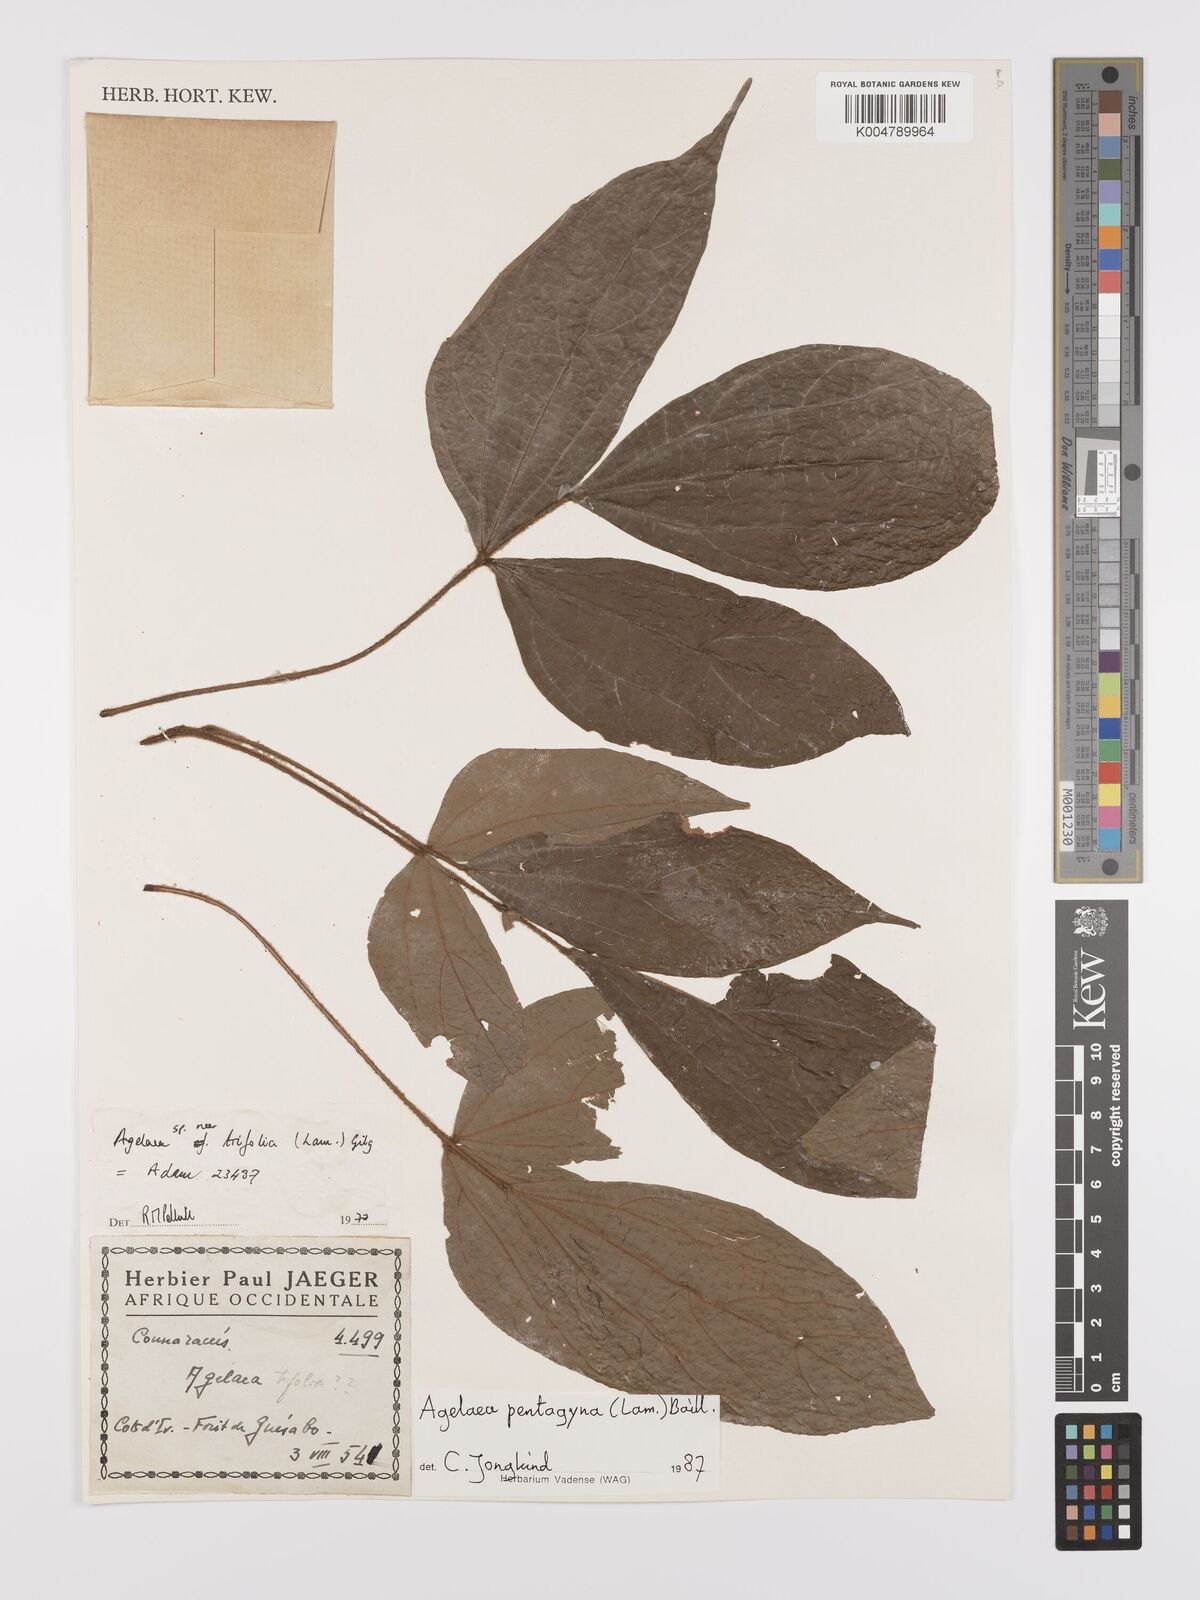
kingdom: Plantae
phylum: Tracheophyta
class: Magnoliopsida
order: Oxalidales
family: Connaraceae
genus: Agelaea
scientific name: Agelaea pentagyna
